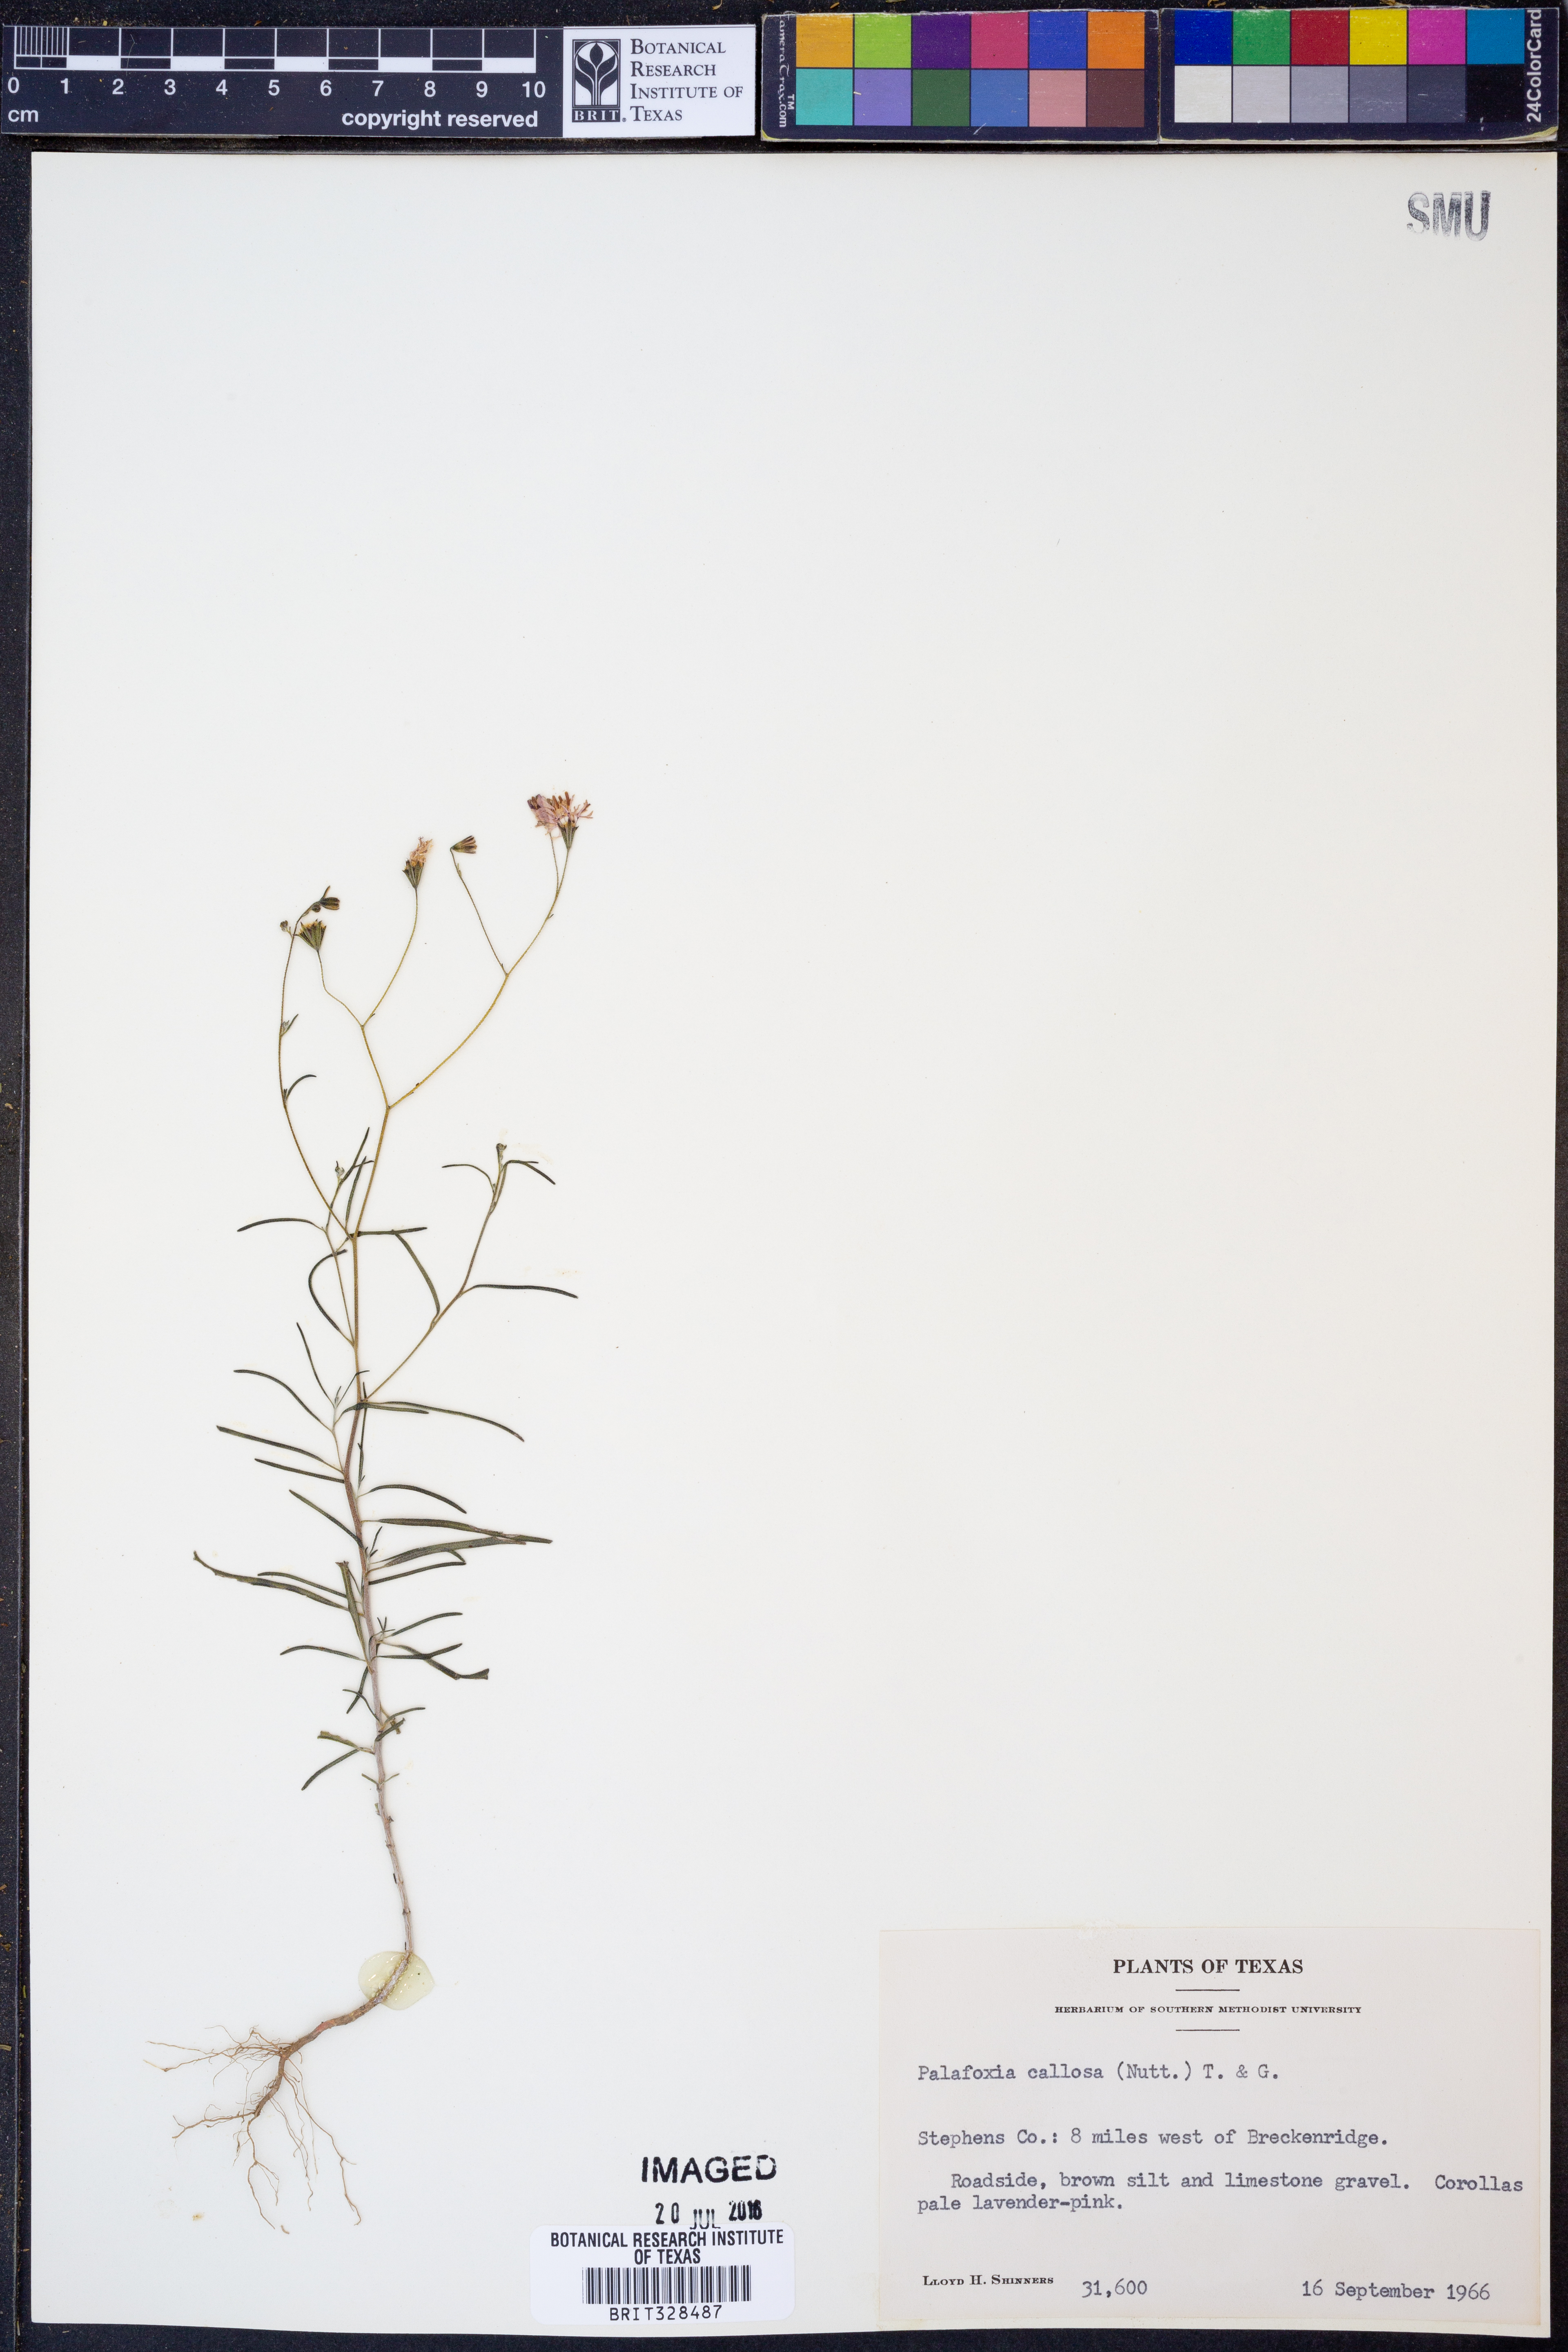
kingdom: Plantae
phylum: Tracheophyta
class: Magnoliopsida
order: Asterales
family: Asteraceae
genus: Palafoxia
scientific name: Palafoxia callosa
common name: Small palafox
